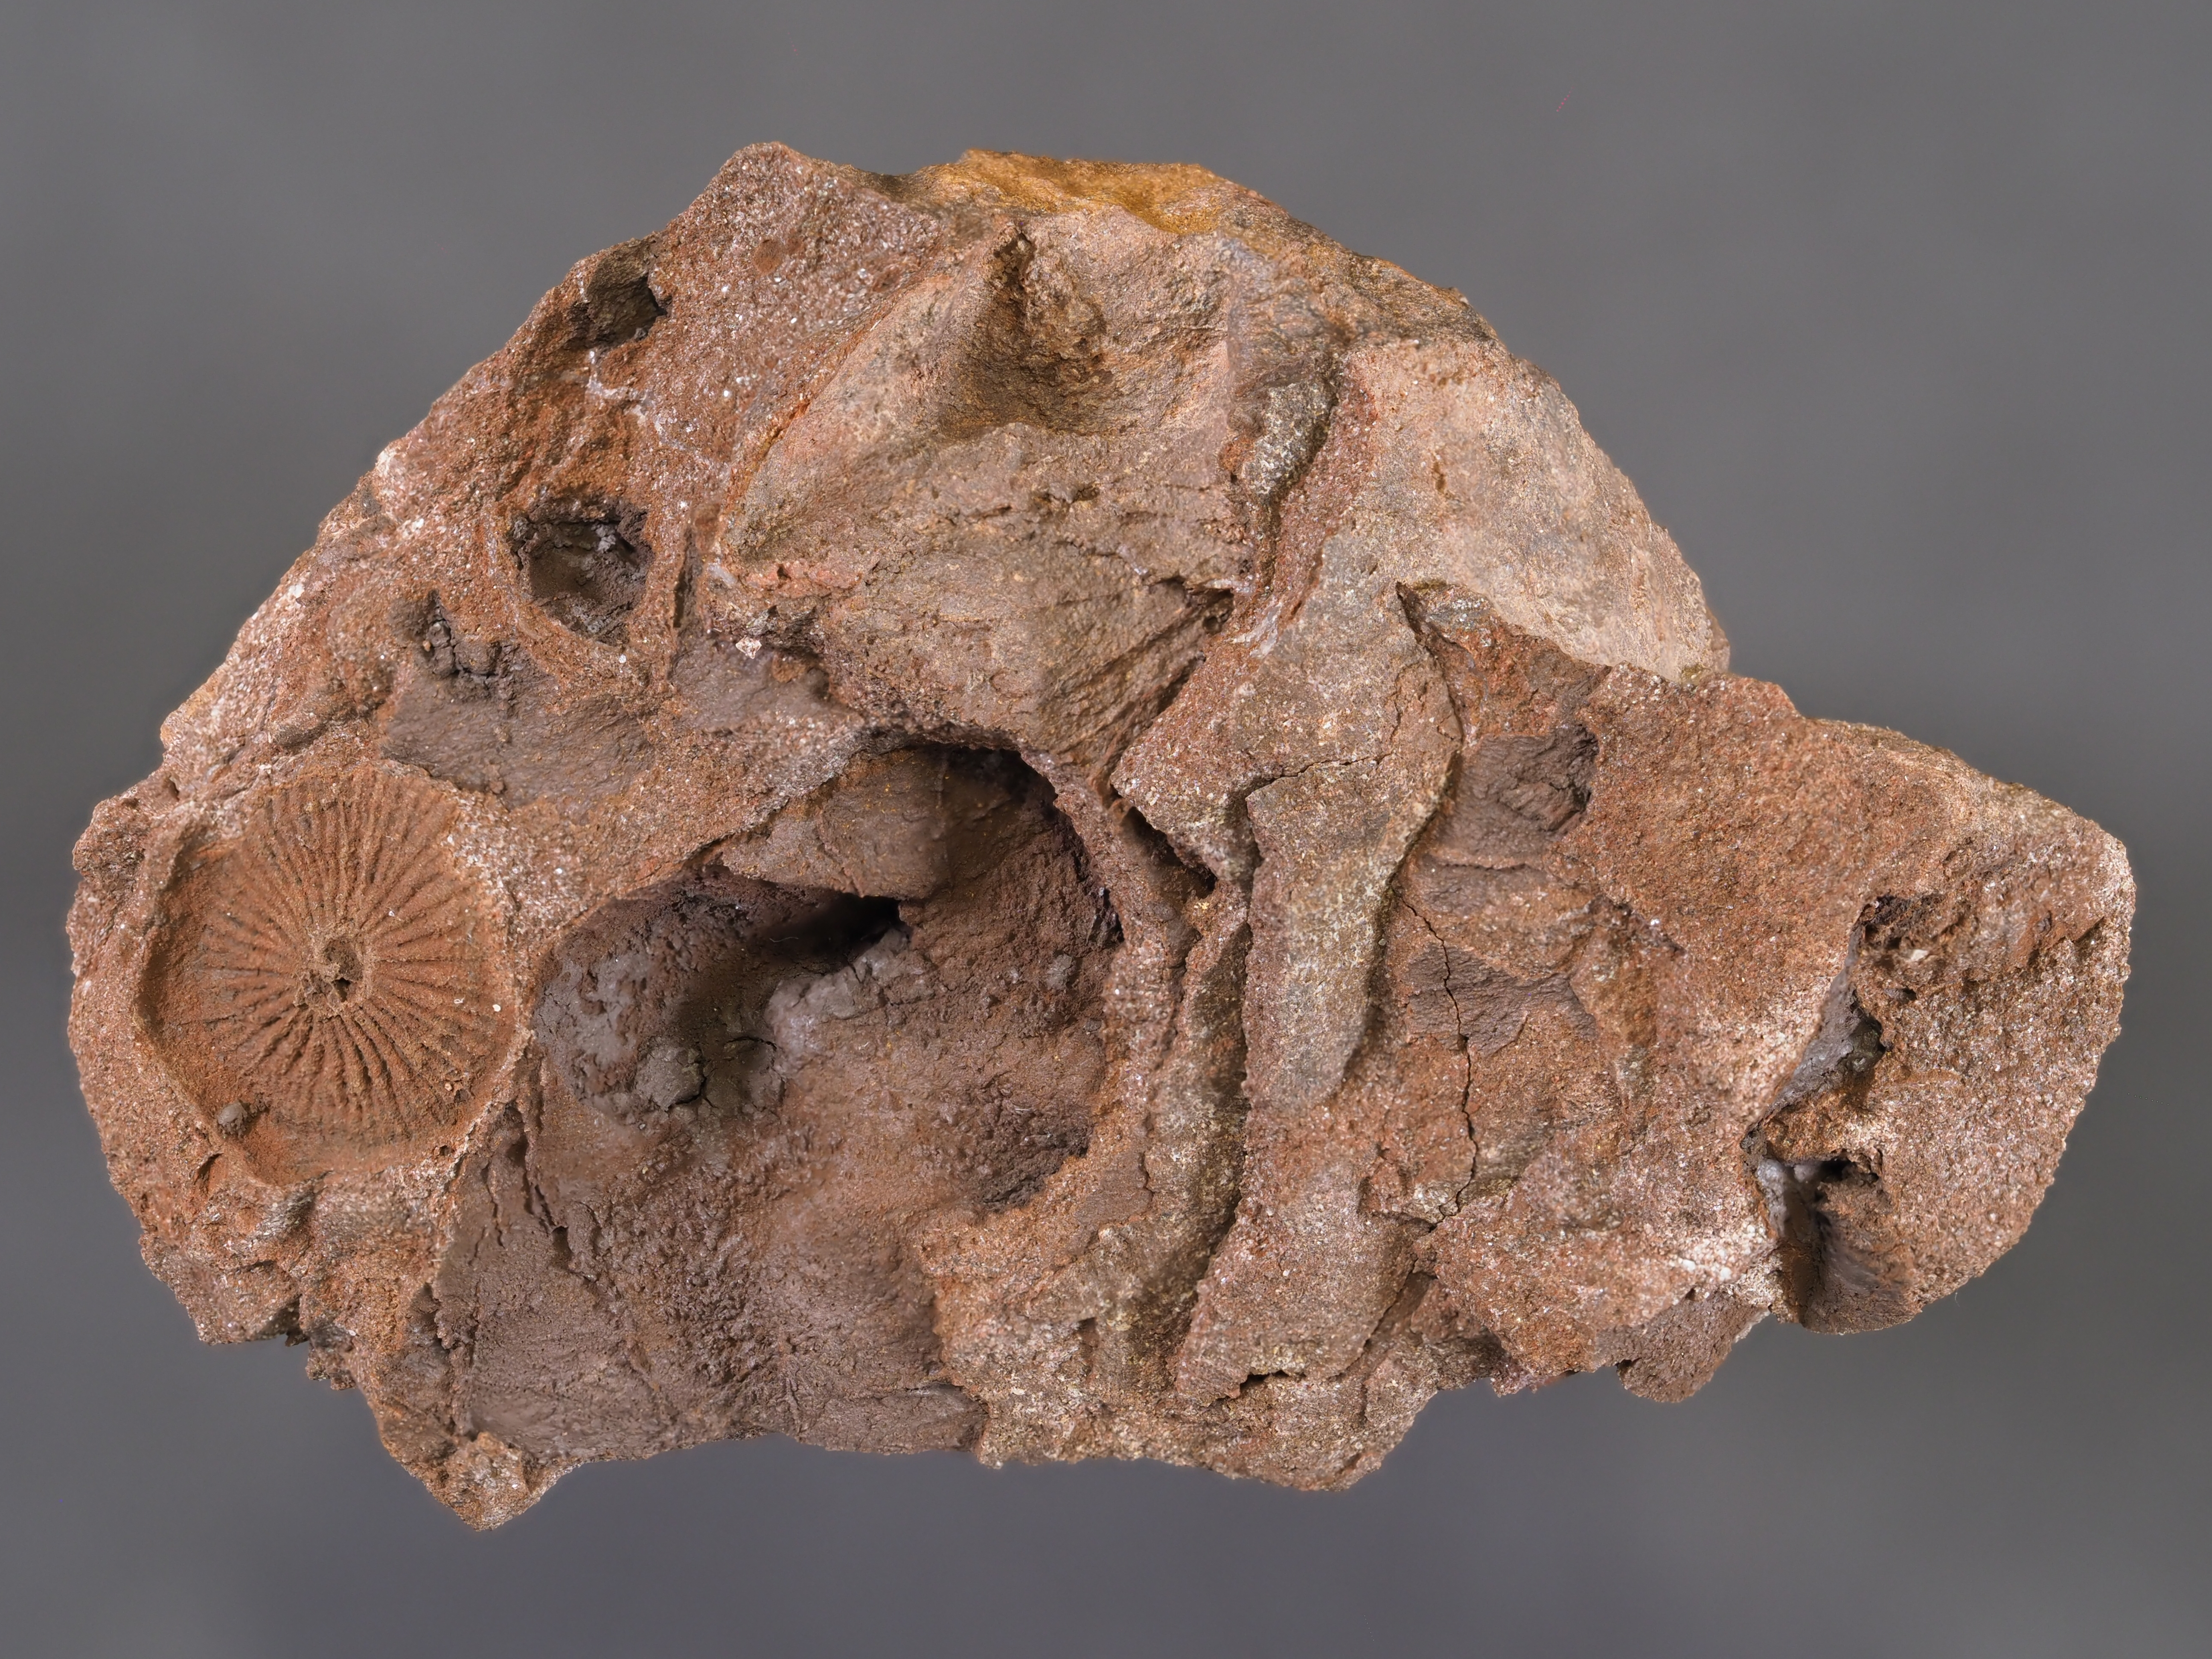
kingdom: Animalia
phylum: Echinodermata
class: Crinoidea
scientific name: Crinoidea
